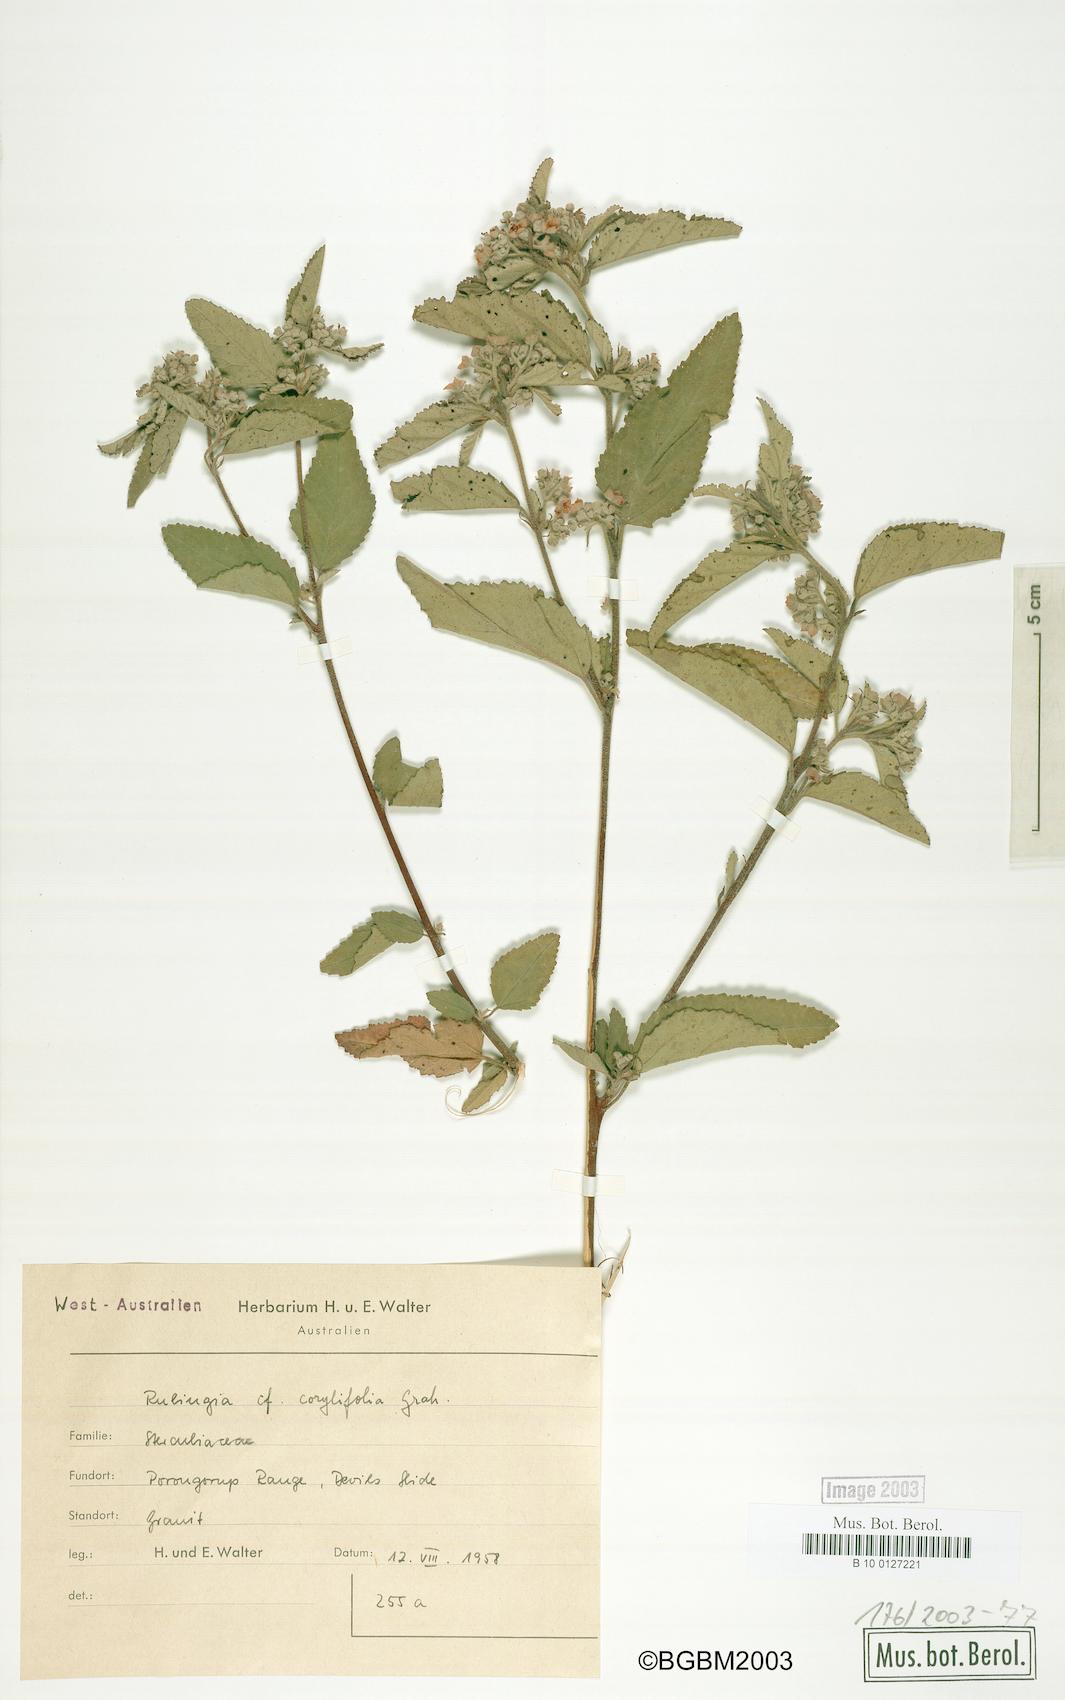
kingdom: Plantae
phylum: Tracheophyta
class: Magnoliopsida
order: Malvales
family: Malvaceae
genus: Commersonia
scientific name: Commersonia corylifolia
